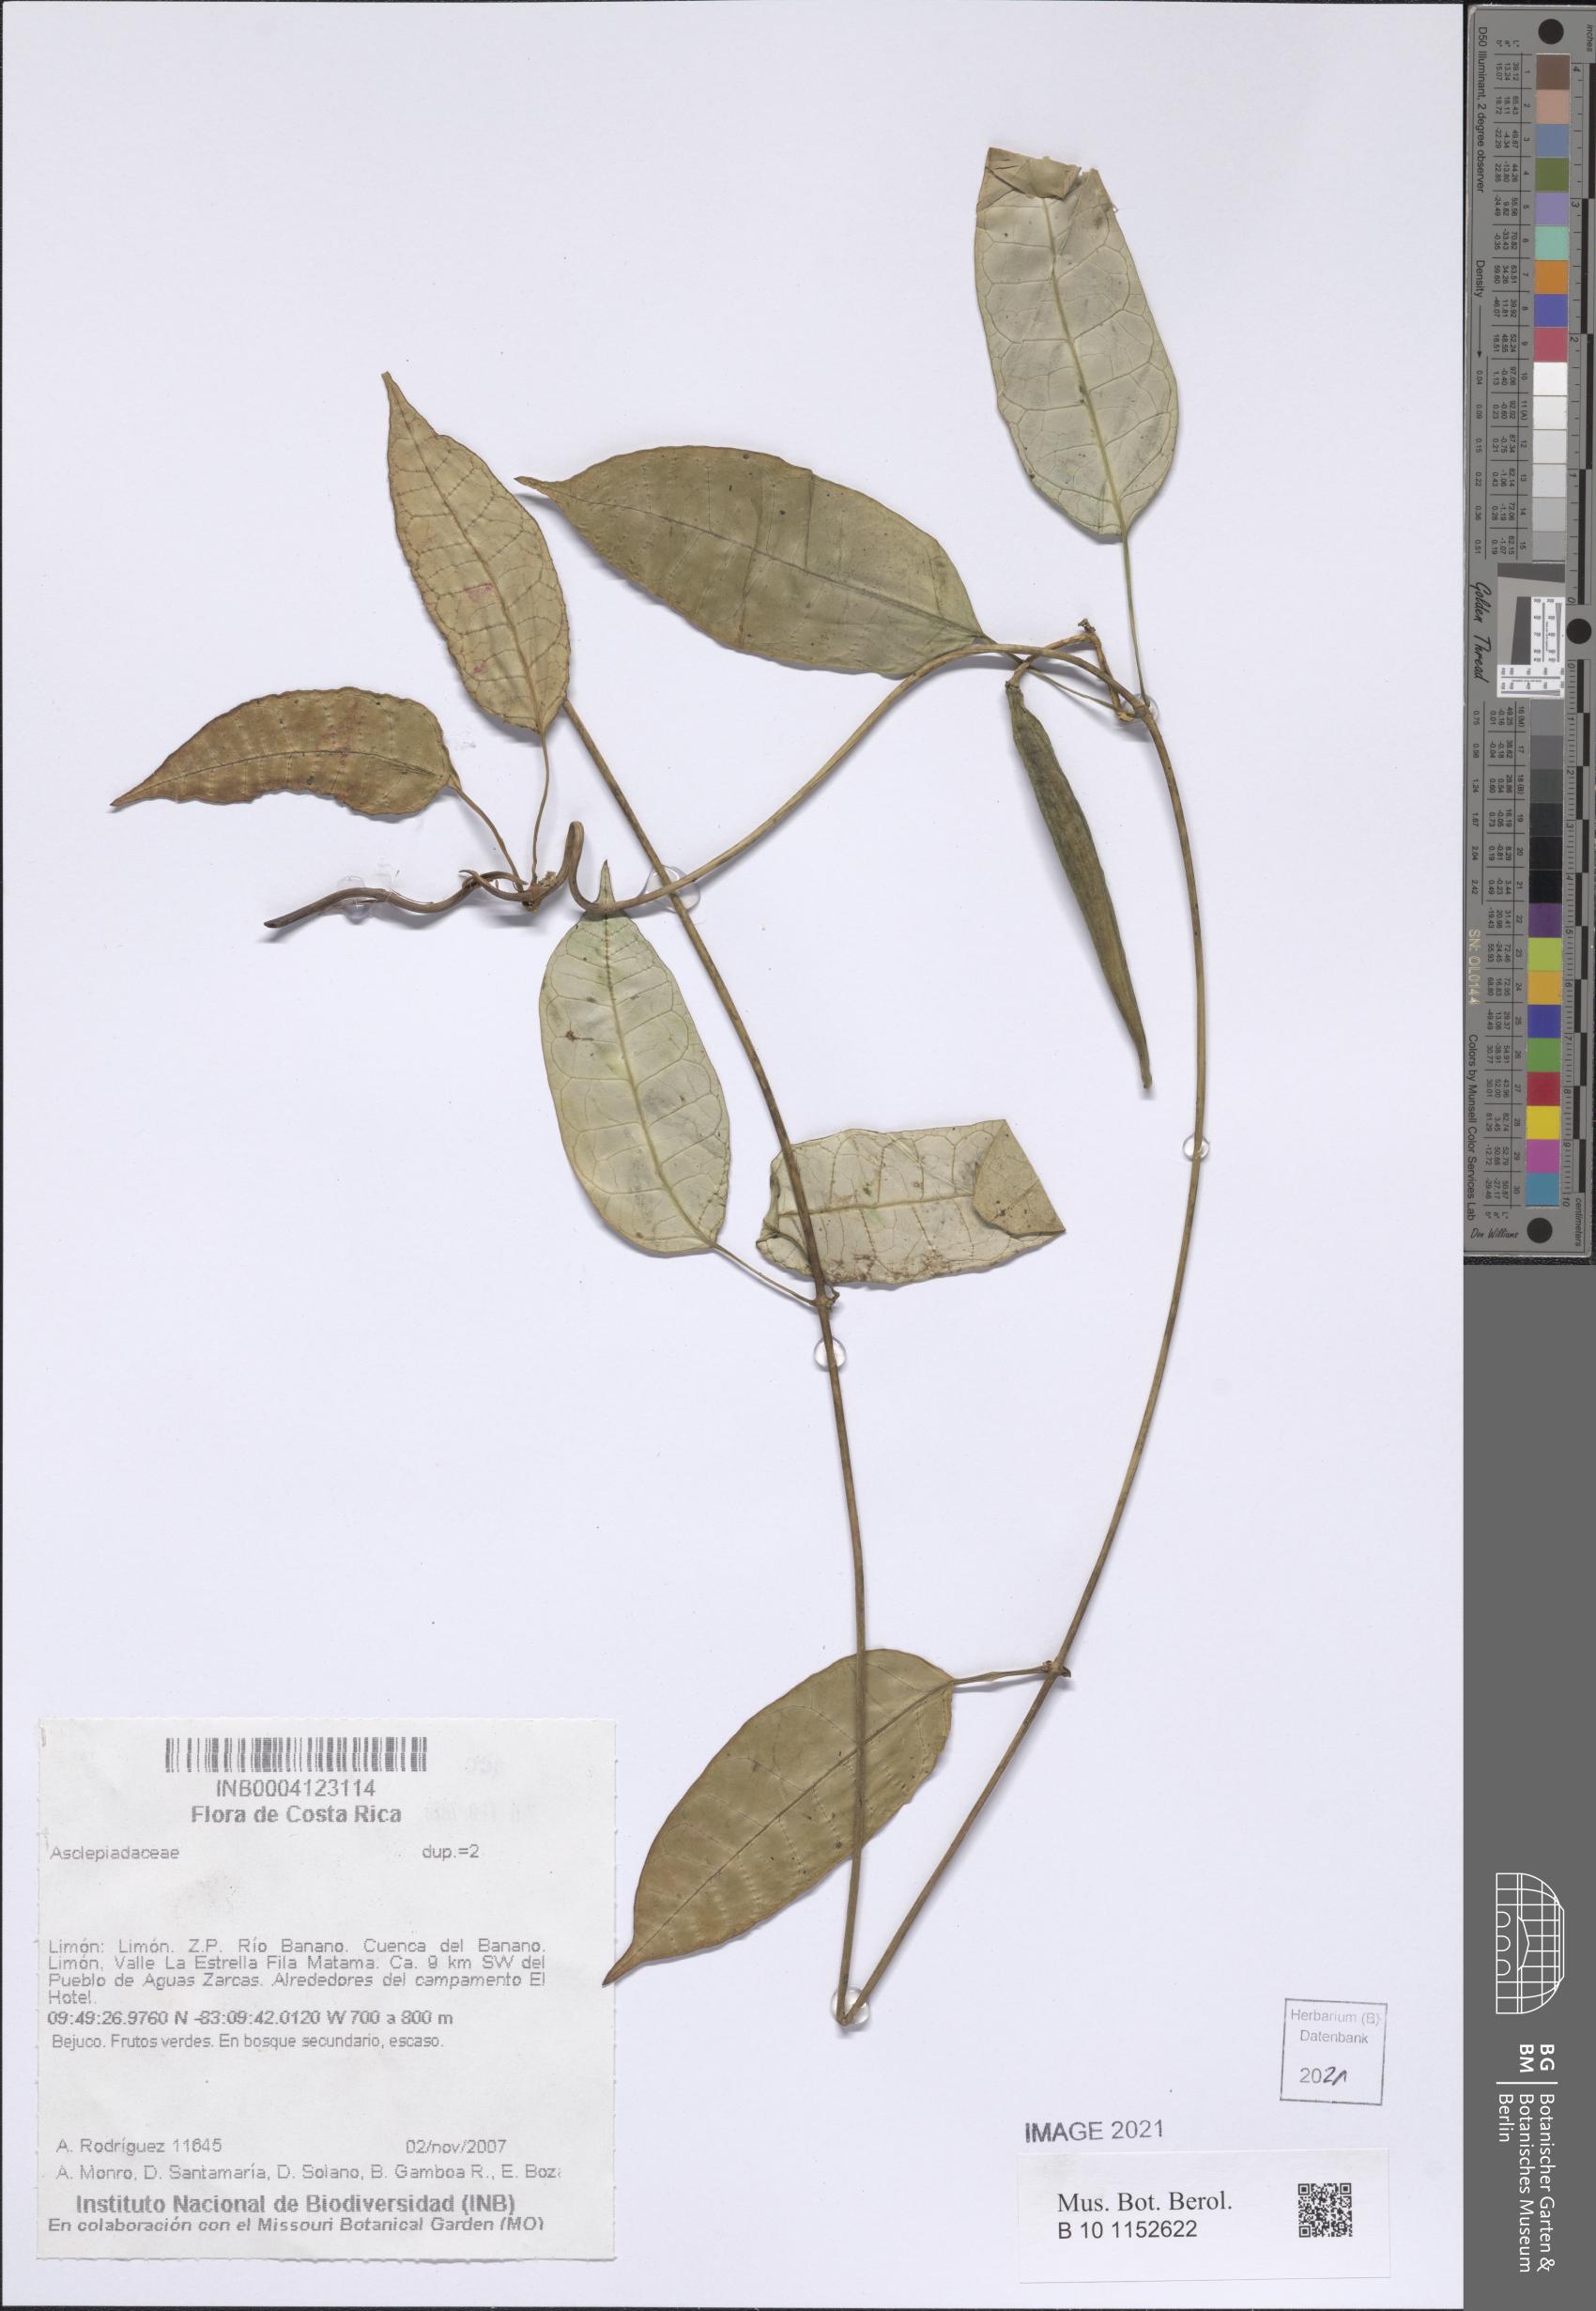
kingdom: Plantae
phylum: Tracheophyta
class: Magnoliopsida
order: Gentianales
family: Asclepiadaceae
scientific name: Asclepiadaceae
